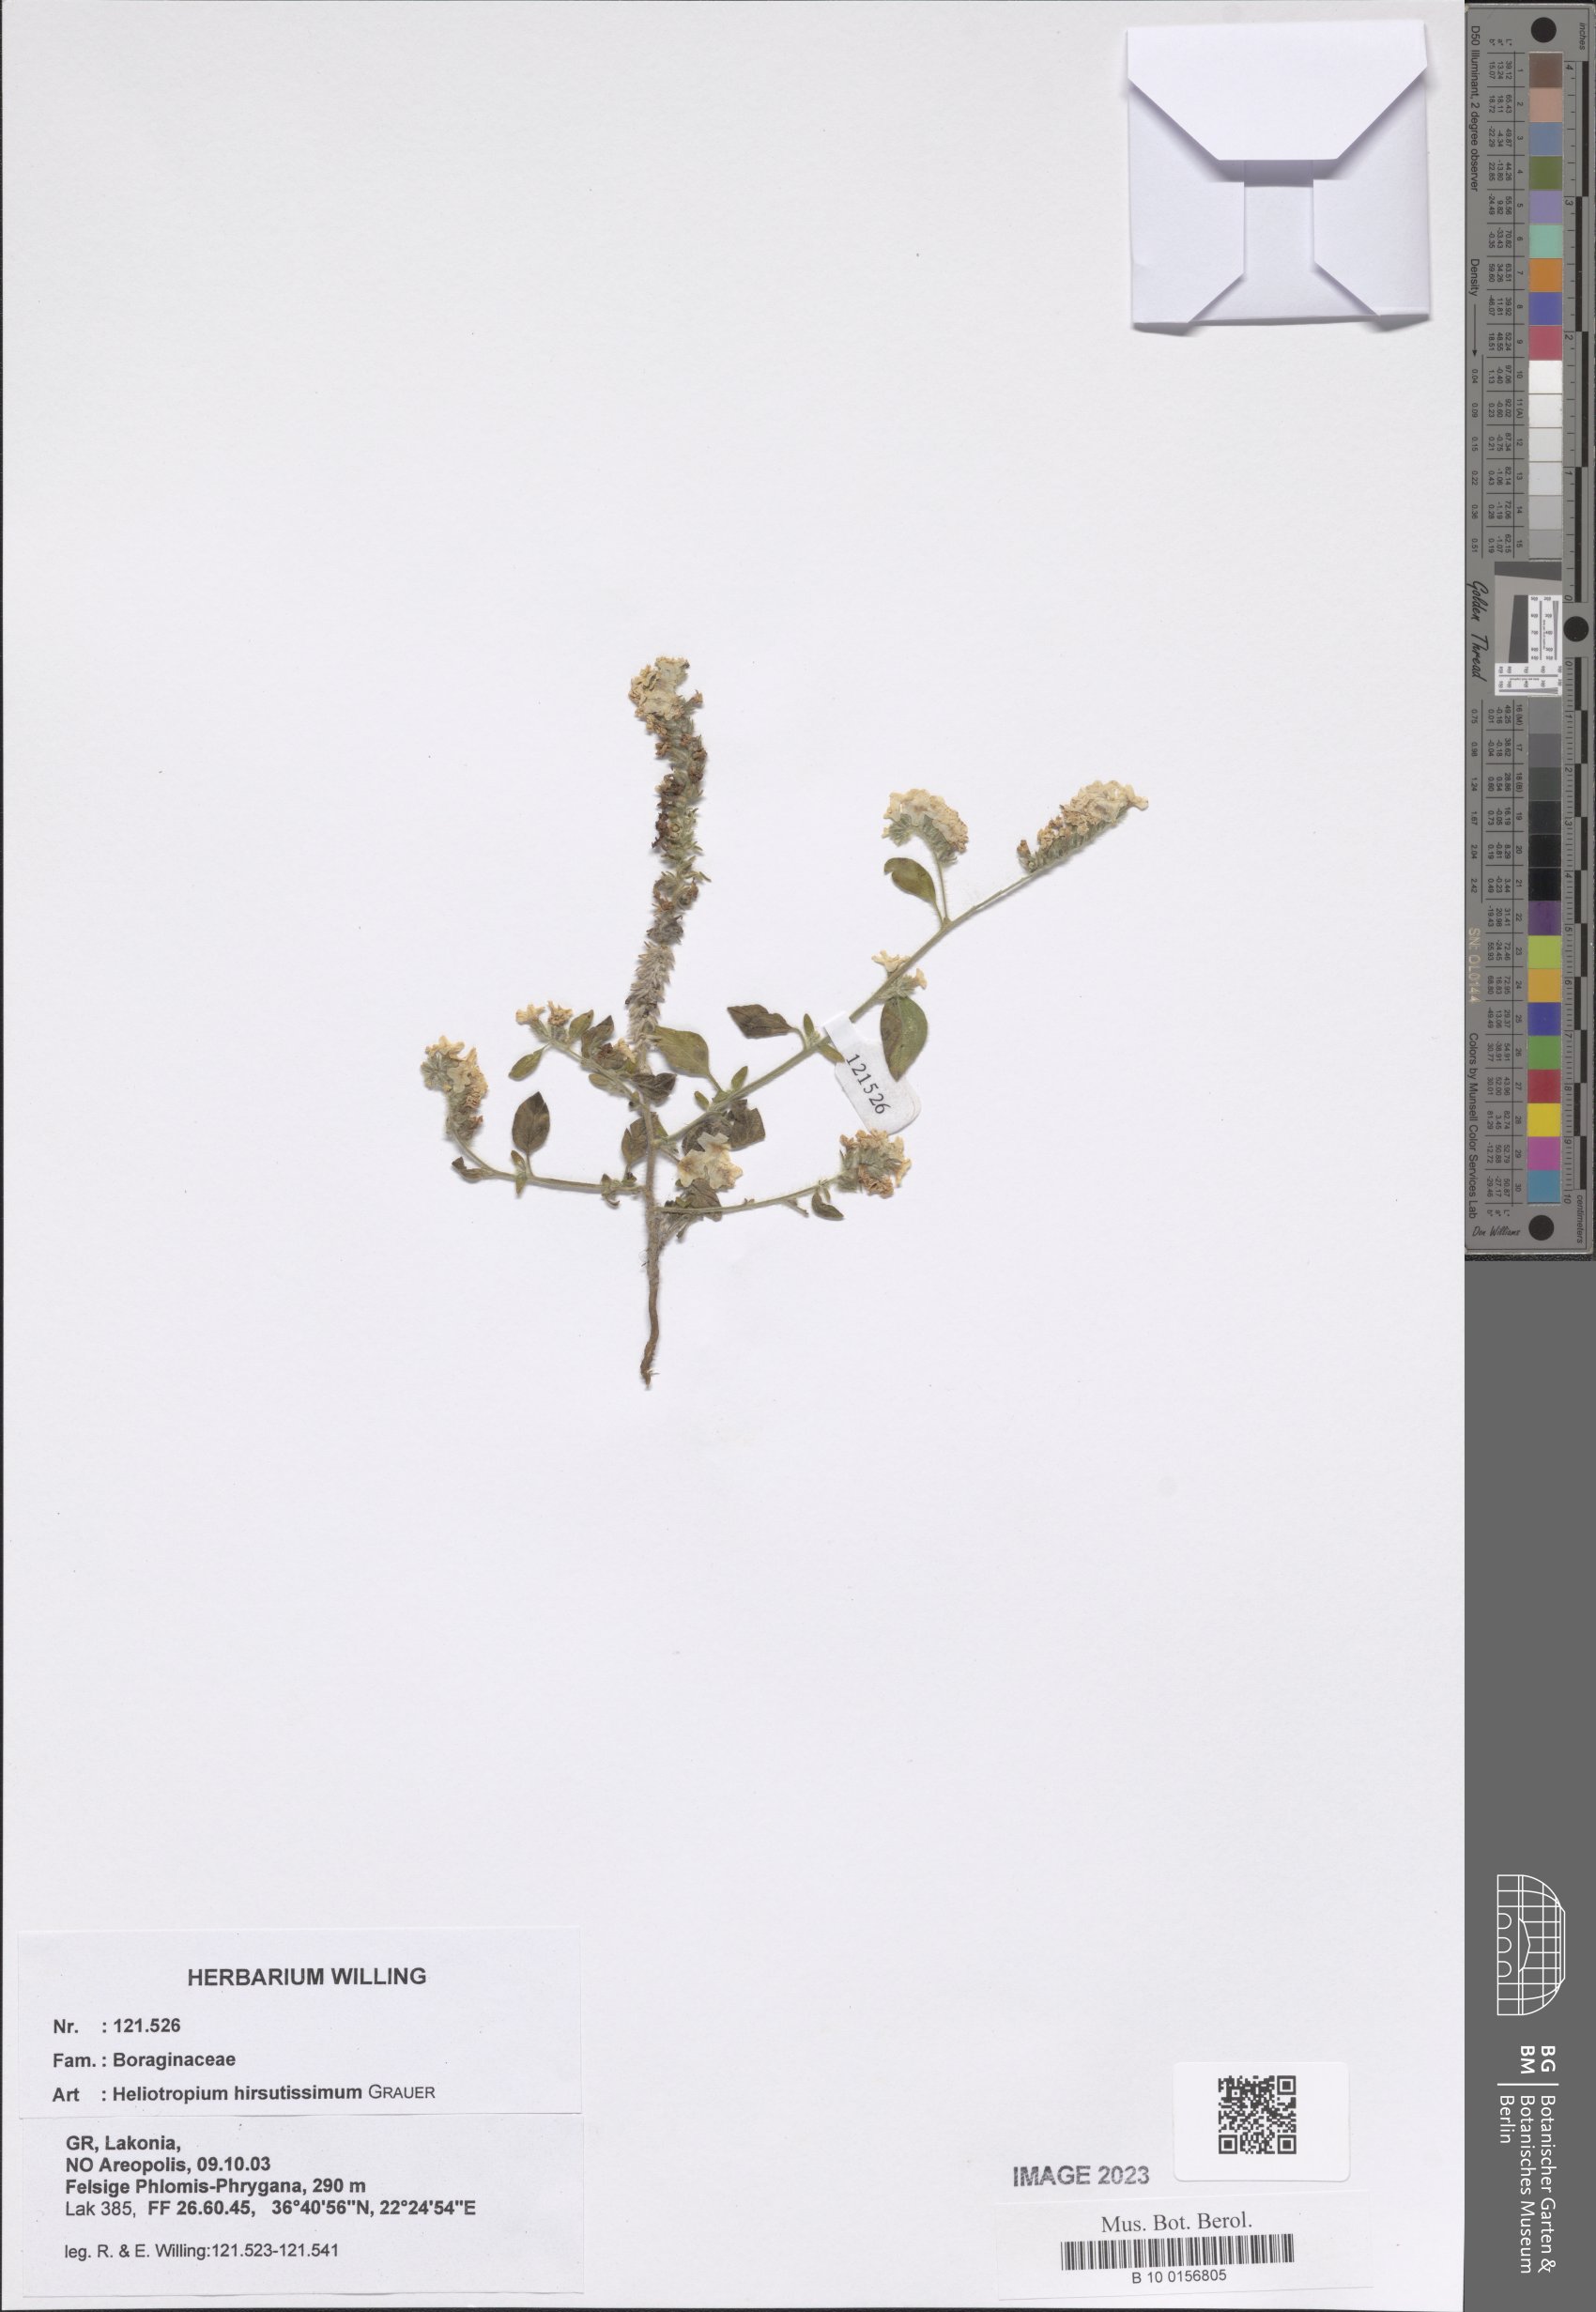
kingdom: Plantae
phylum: Tracheophyta
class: Magnoliopsida
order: Boraginales
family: Heliotropiaceae
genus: Heliotropium
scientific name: Heliotropium hirsutissimum
